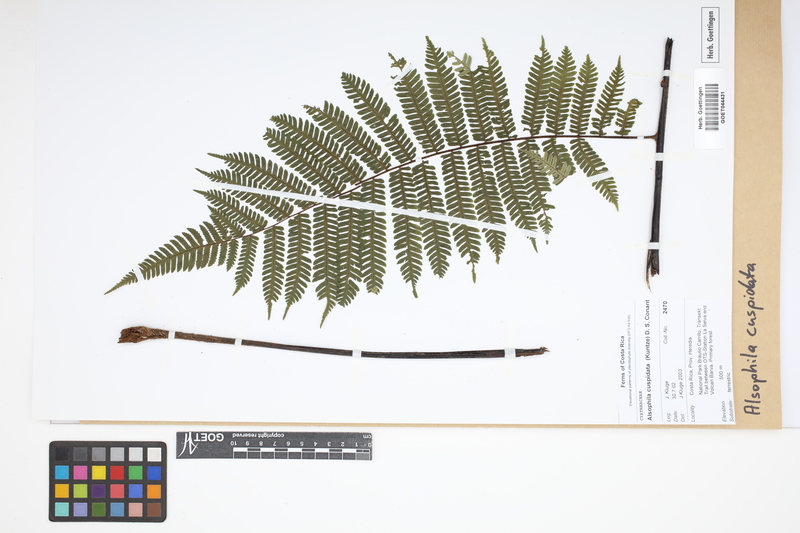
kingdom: Plantae
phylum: Tracheophyta
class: Polypodiopsida
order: Cyatheales
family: Cyatheaceae
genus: Alsophila
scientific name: Alsophila cuspidata
